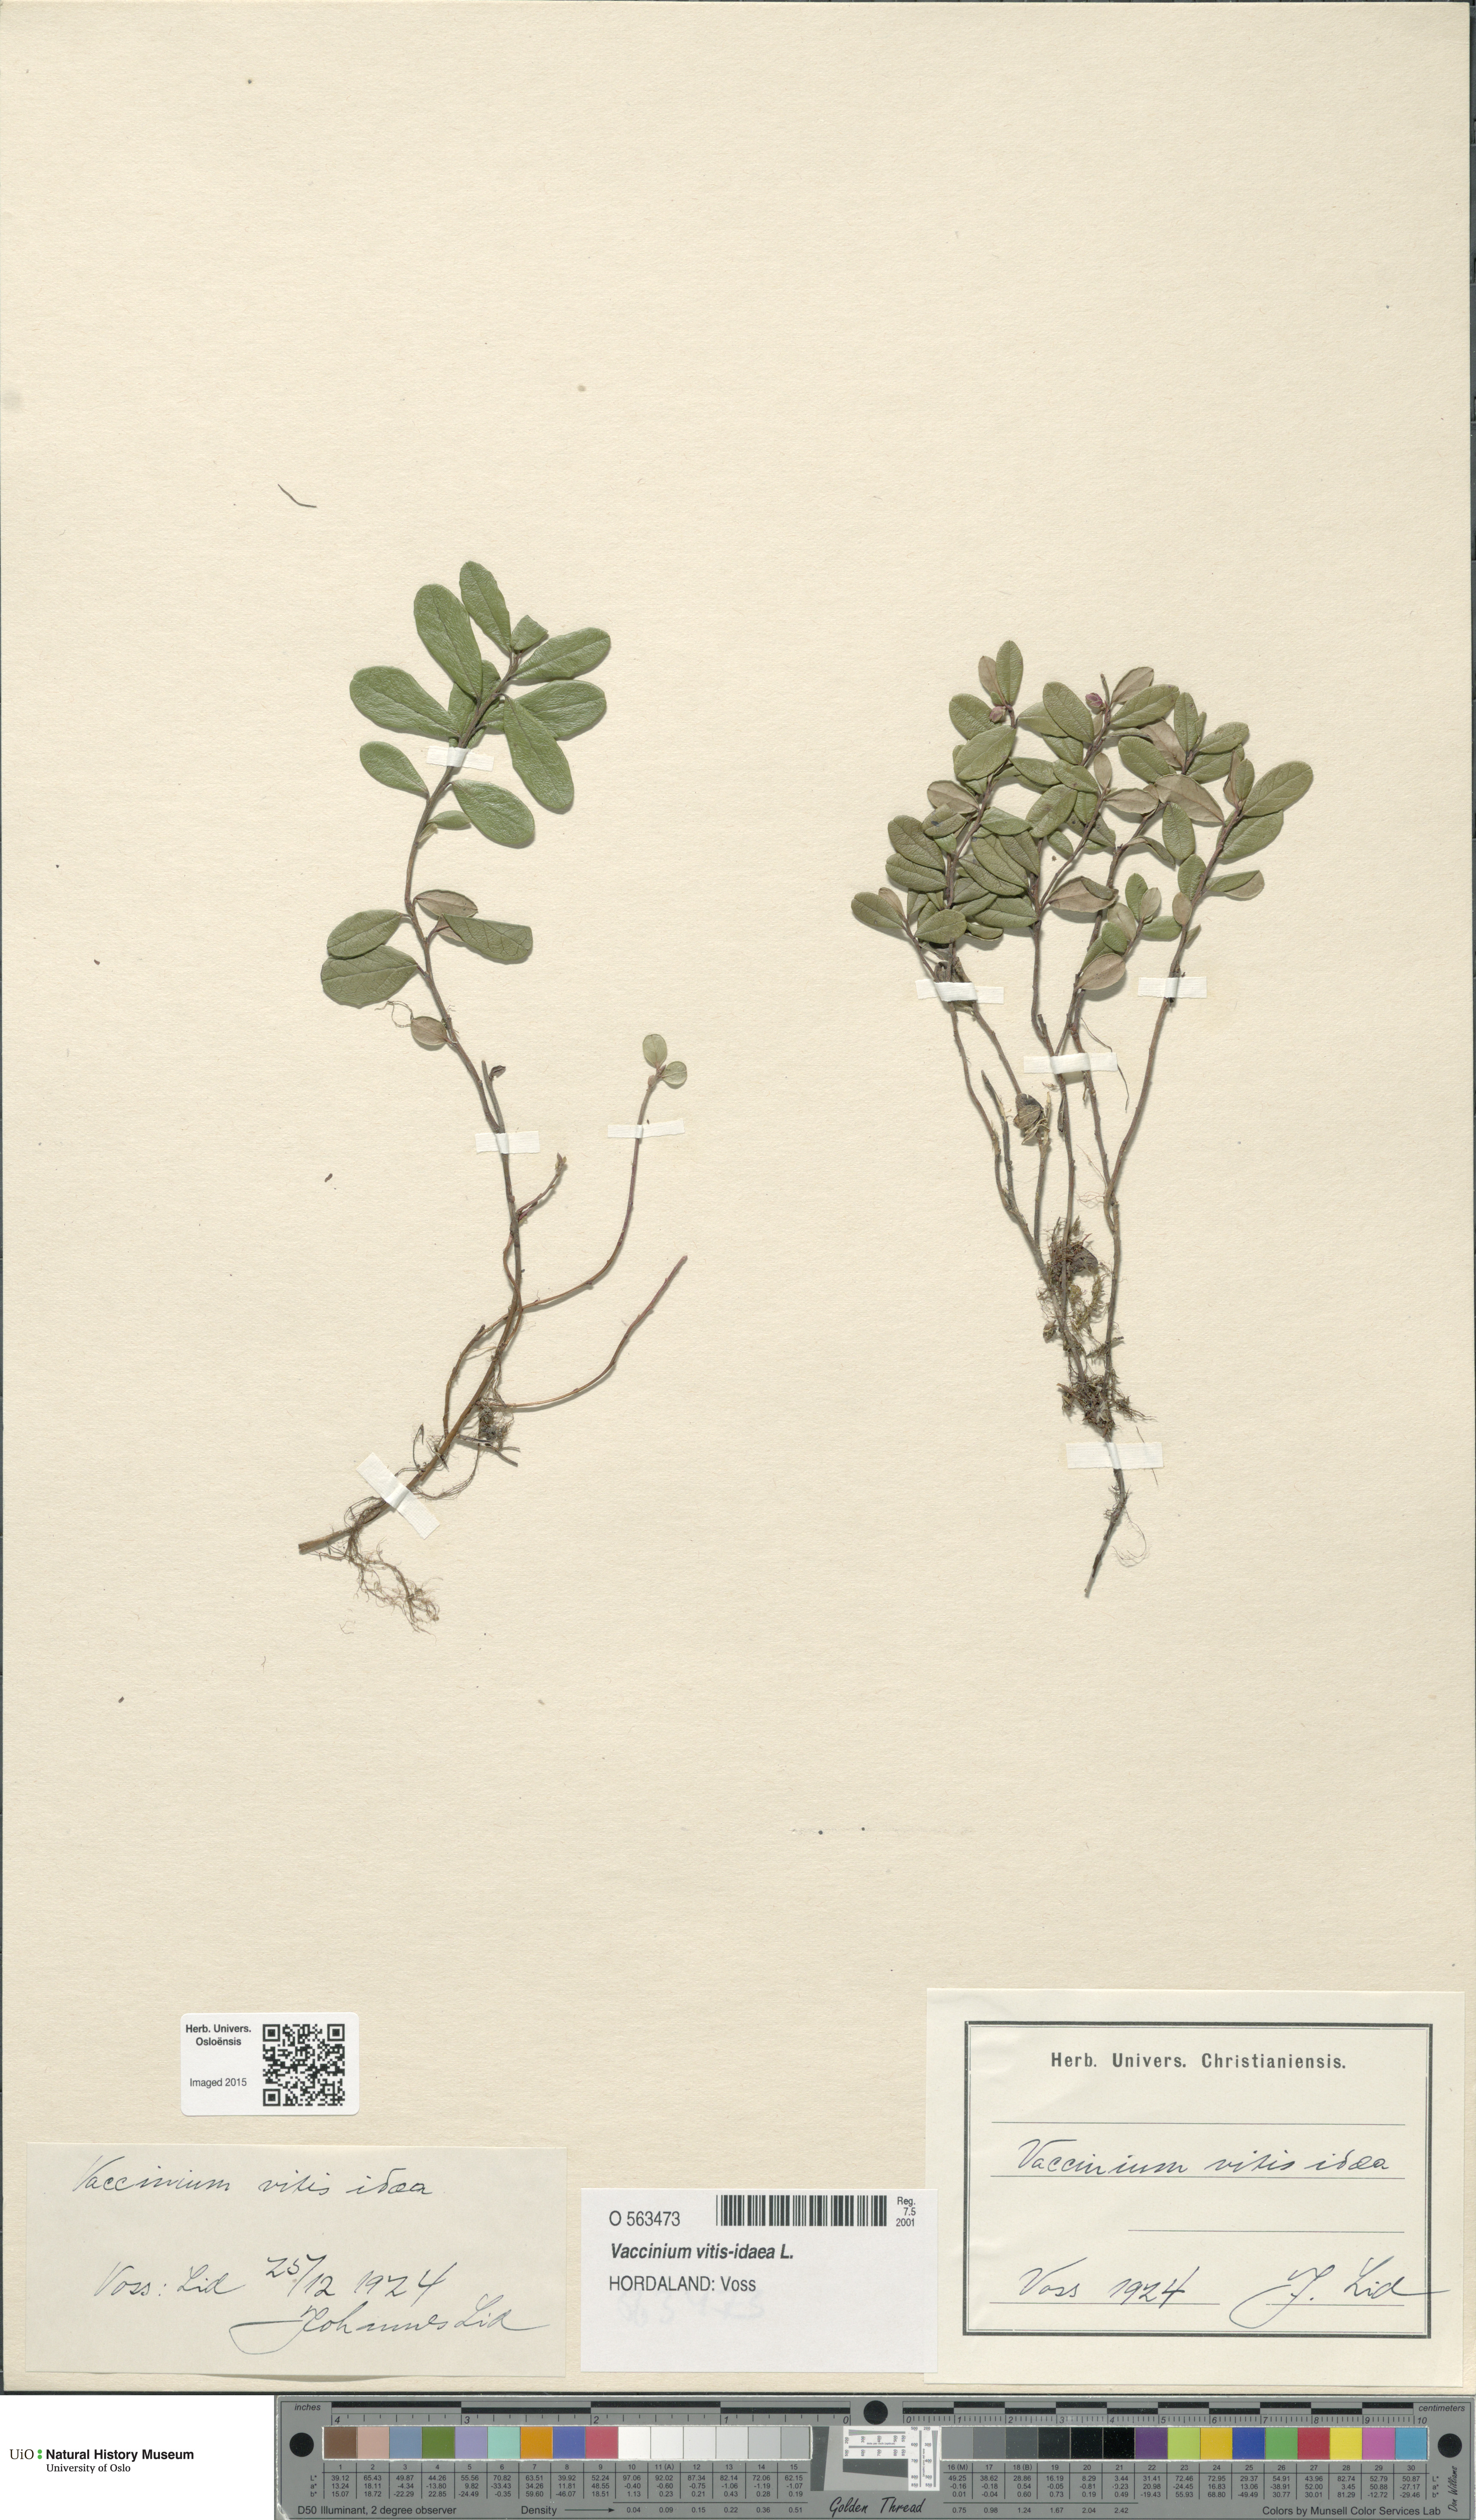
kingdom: Plantae
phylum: Tracheophyta
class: Magnoliopsida
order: Ericales
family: Ericaceae
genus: Vaccinium
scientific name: Vaccinium vitis-idaea
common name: Cowberry
